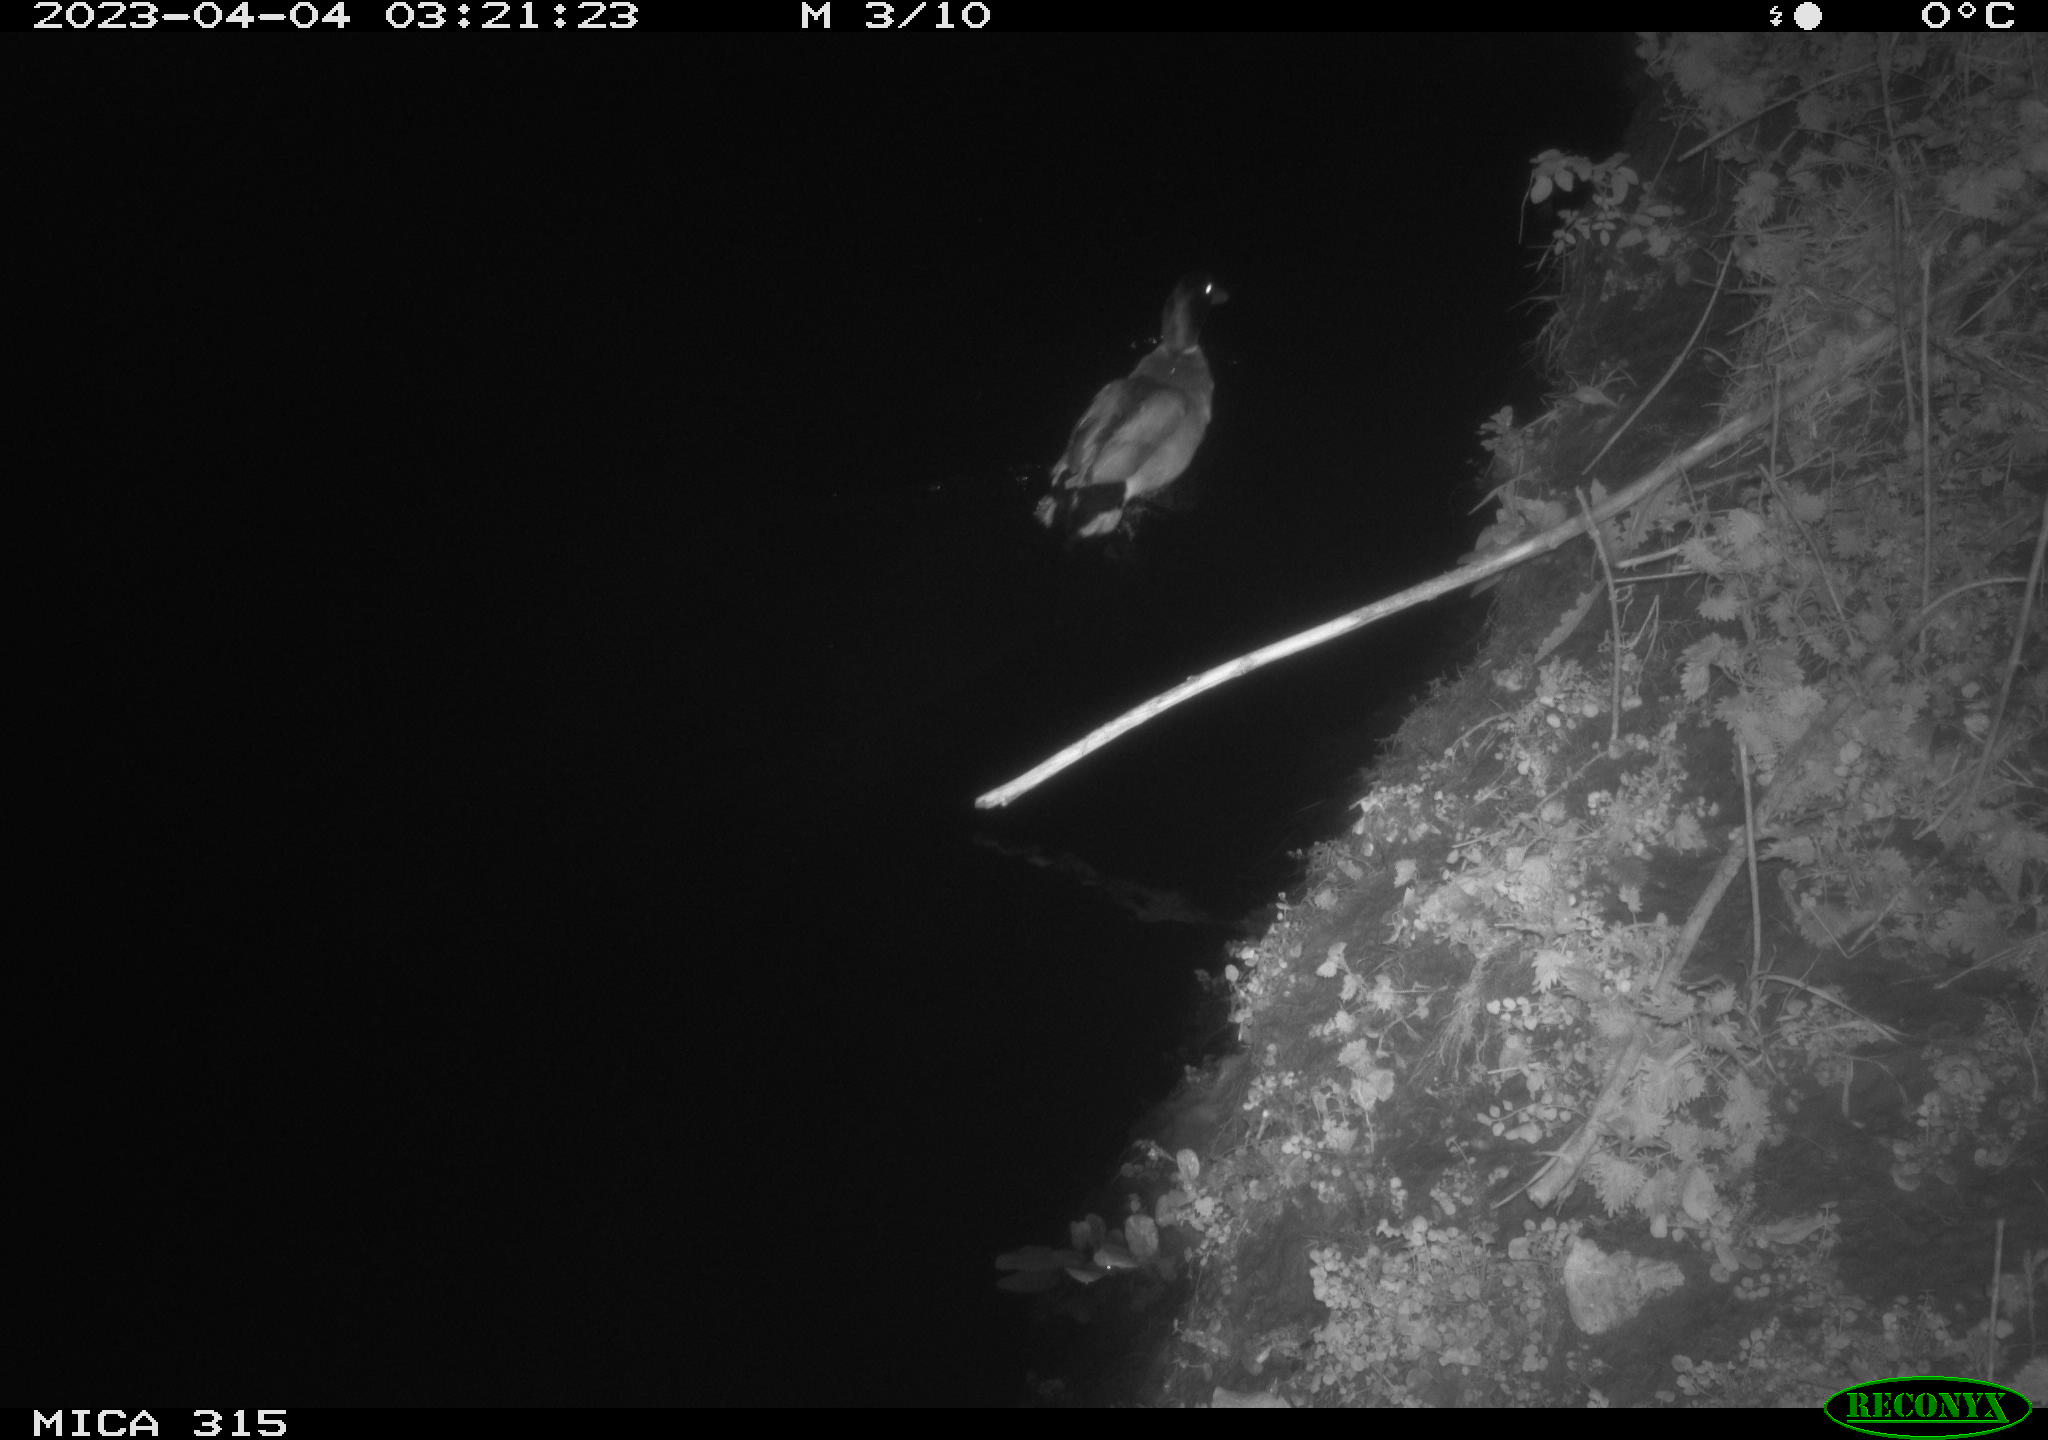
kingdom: Animalia
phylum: Chordata
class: Aves
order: Anseriformes
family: Anatidae
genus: Anas
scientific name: Anas
